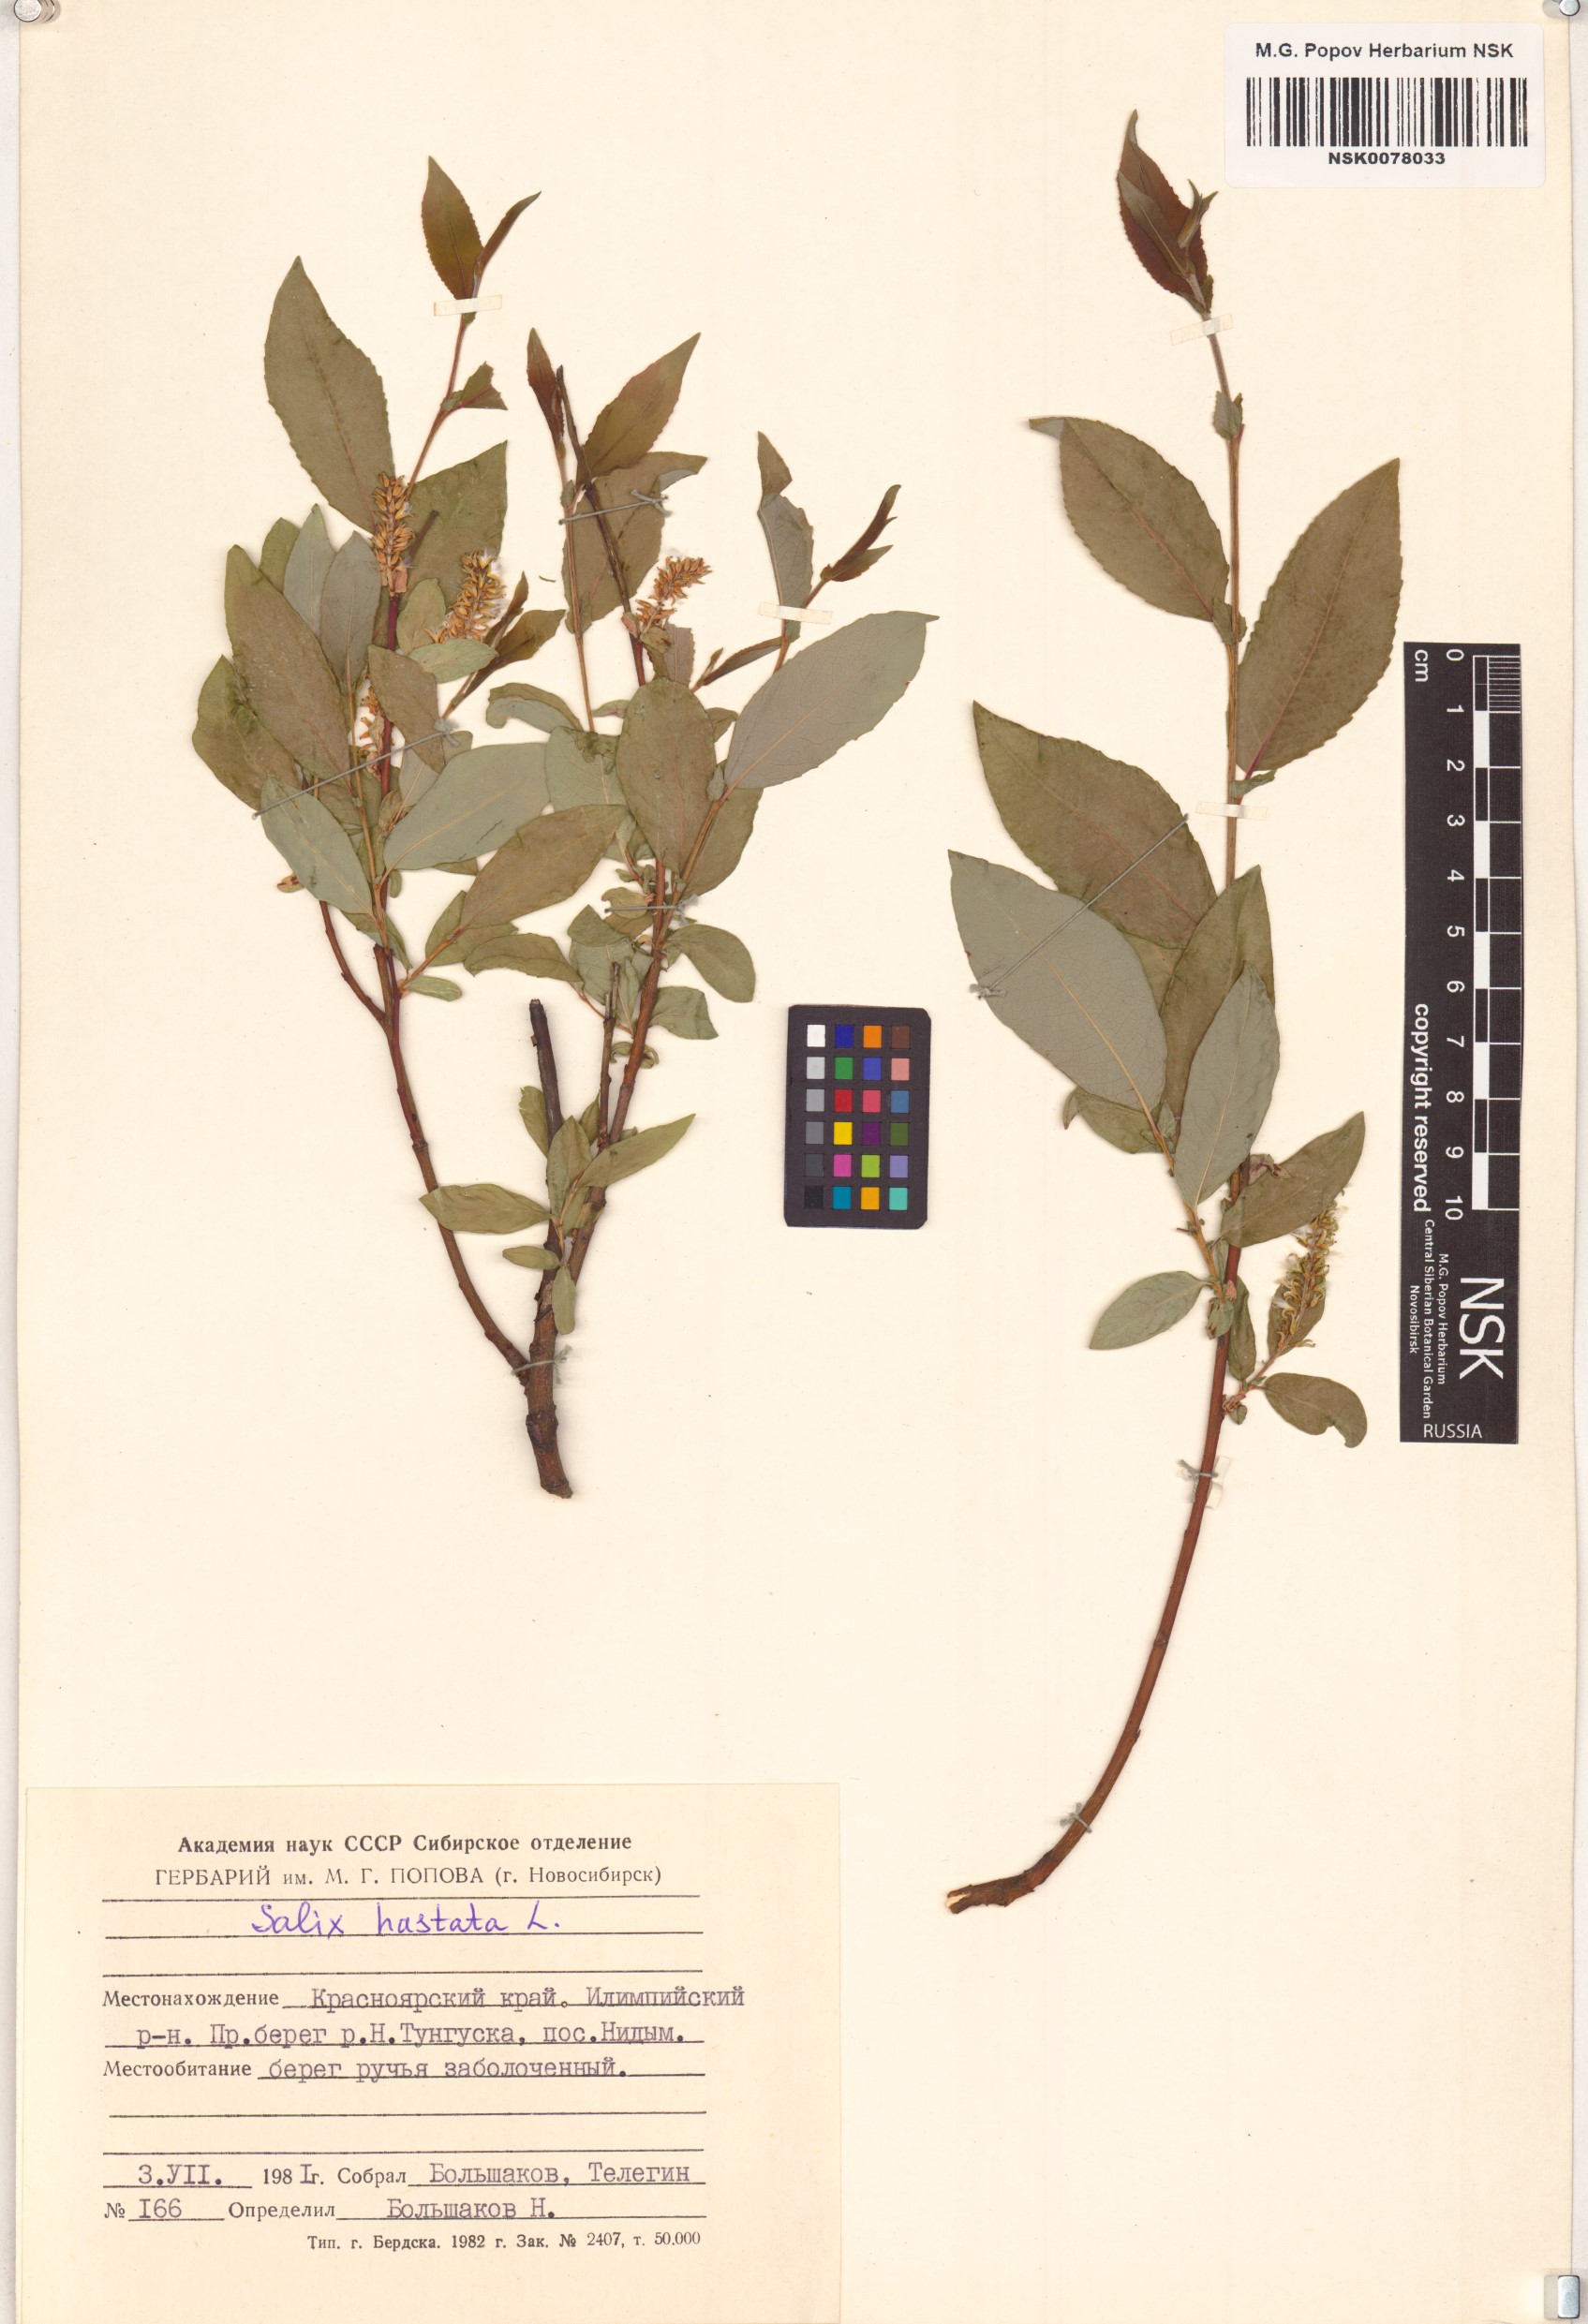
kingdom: Plantae
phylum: Tracheophyta
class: Magnoliopsida
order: Malpighiales
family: Salicaceae
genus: Salix
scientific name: Salix hastata
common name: Halberd willow
